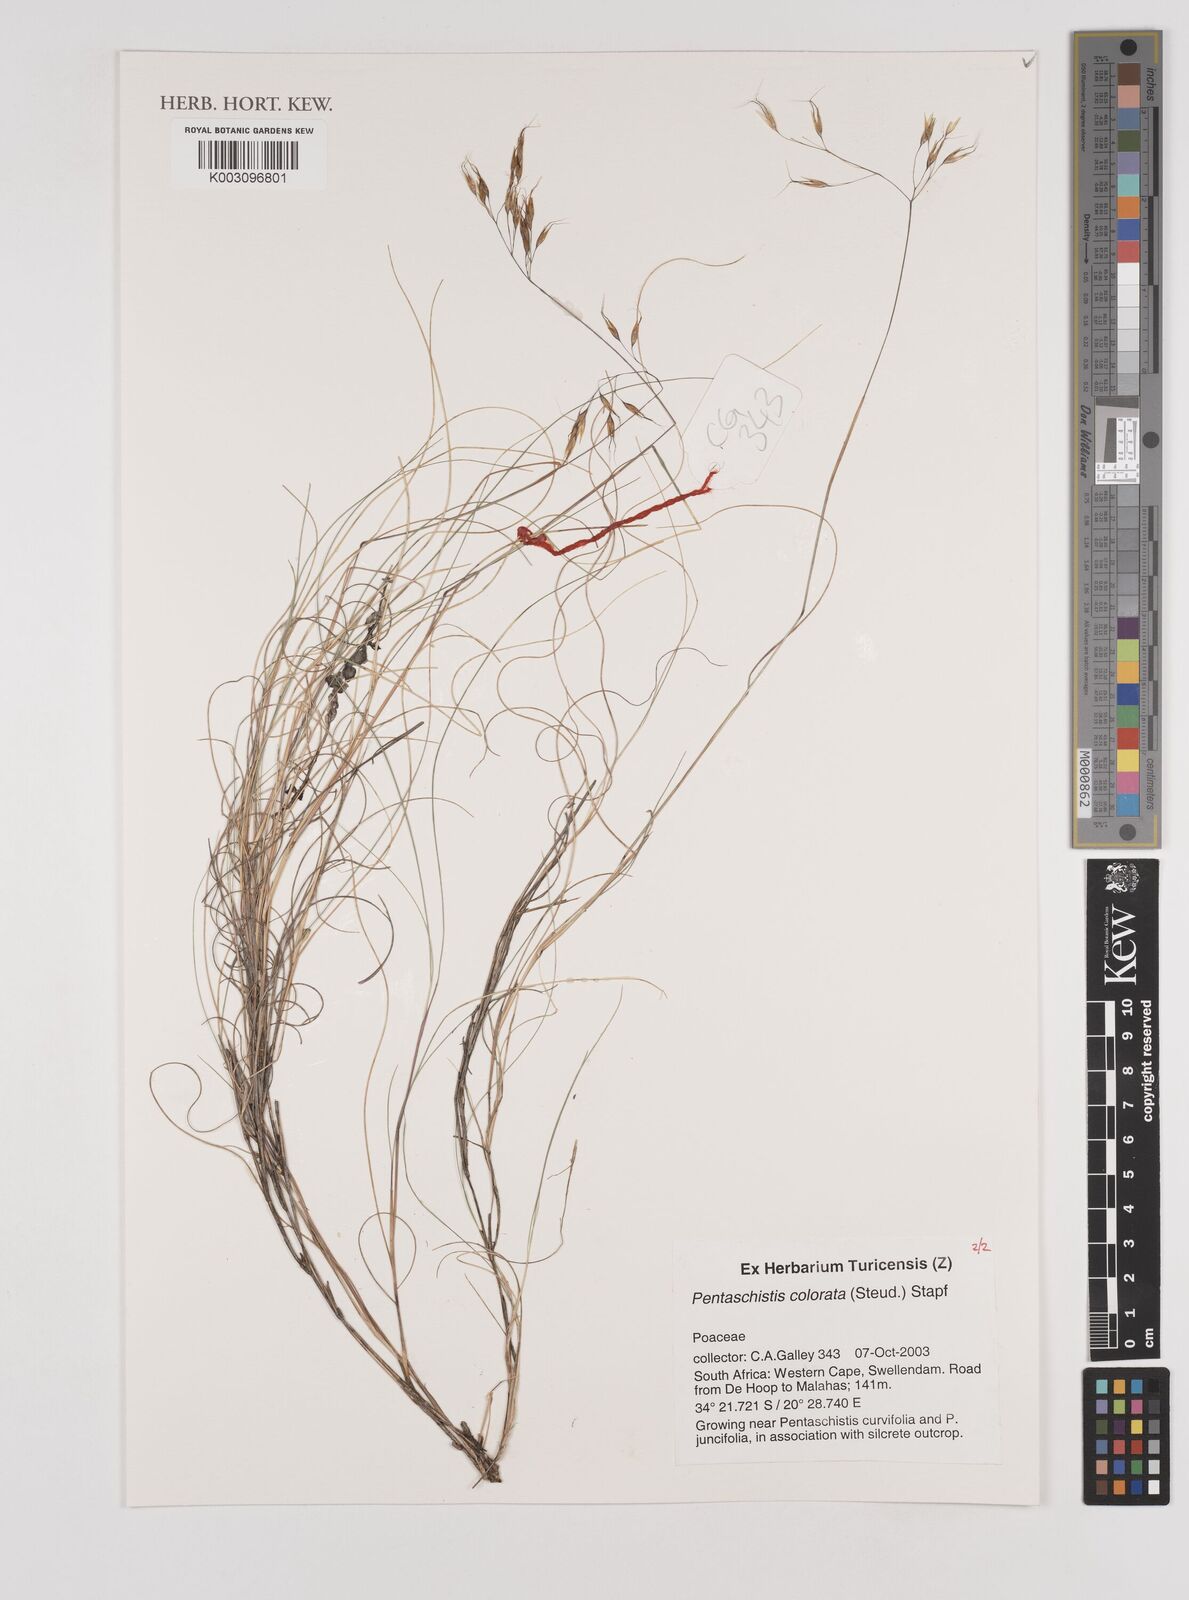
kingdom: Plantae
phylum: Tracheophyta
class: Liliopsida
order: Poales
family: Poaceae
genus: Pentameris
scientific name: Pentameris colorata
